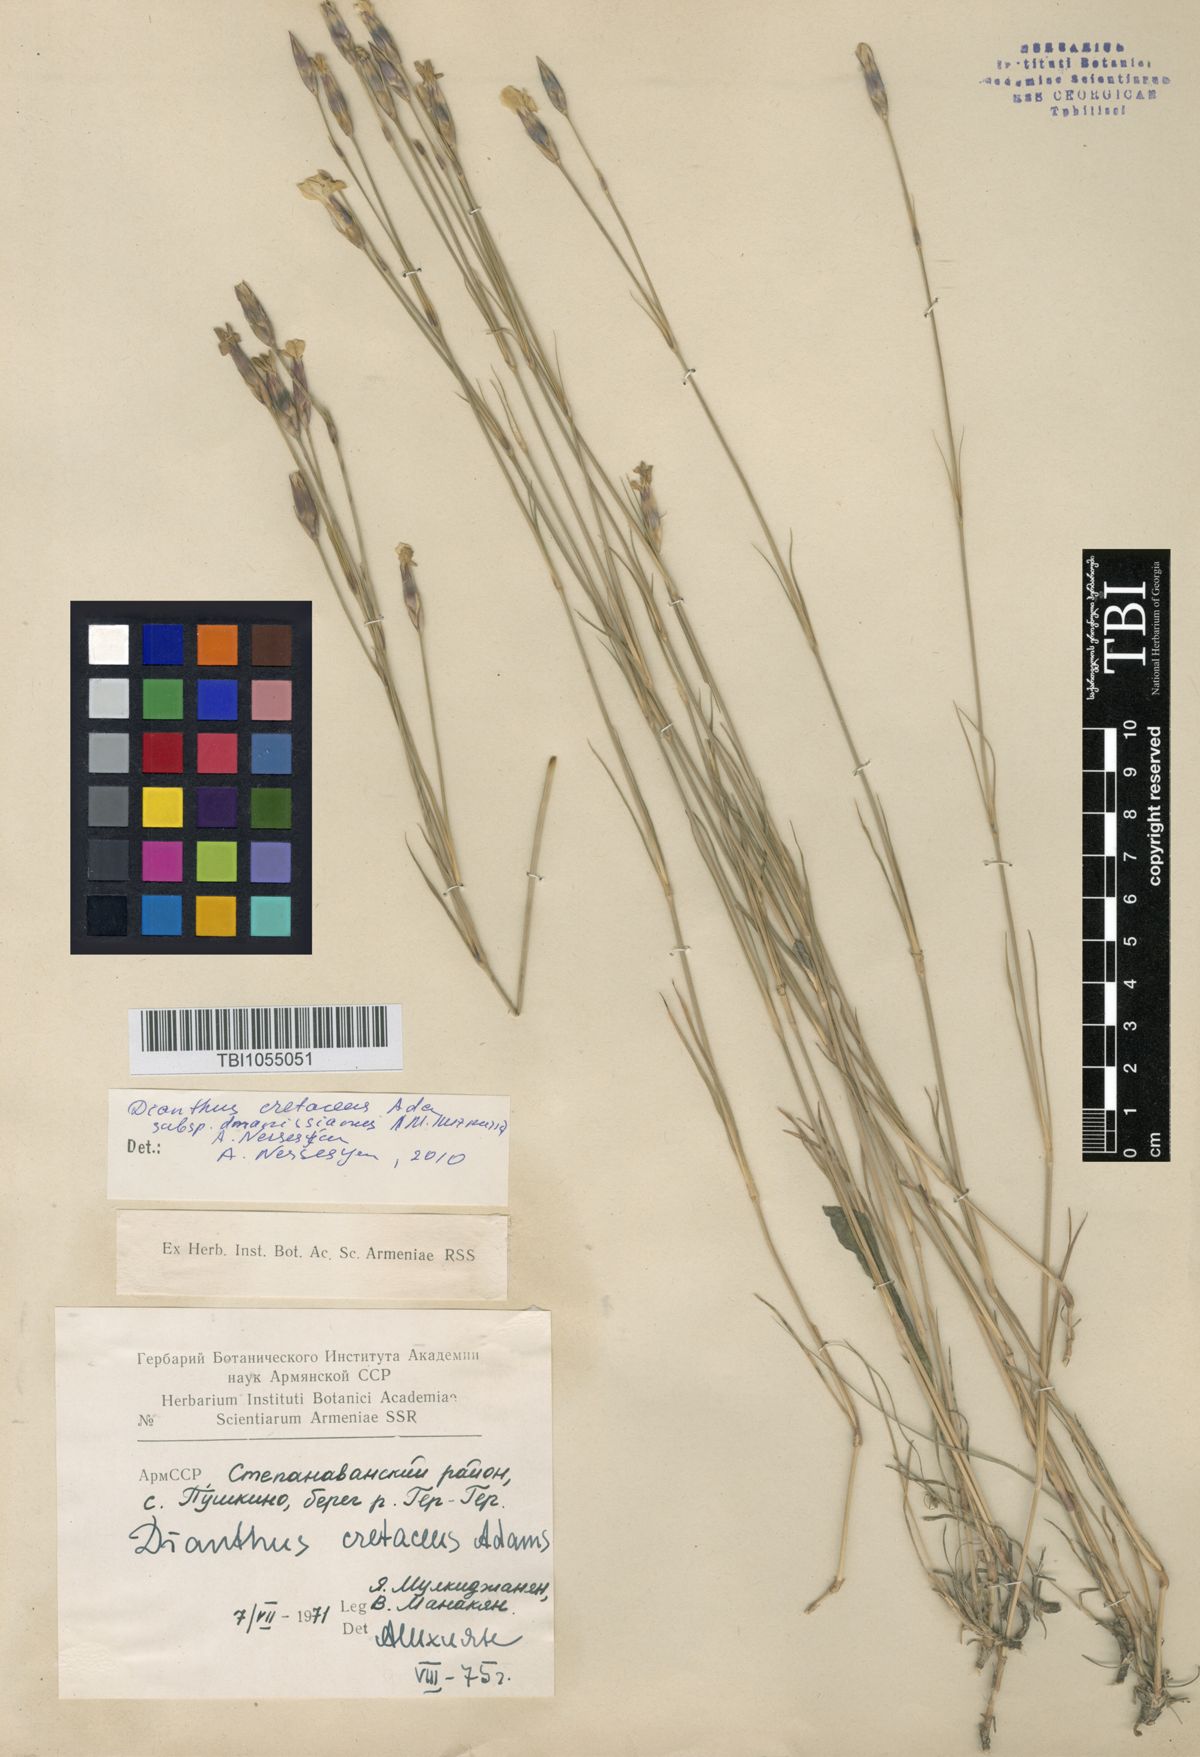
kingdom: Plantae
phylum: Tracheophyta
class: Magnoliopsida
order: Caryophyllales
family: Caryophyllaceae
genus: Dianthus
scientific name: Dianthus cretaceus
